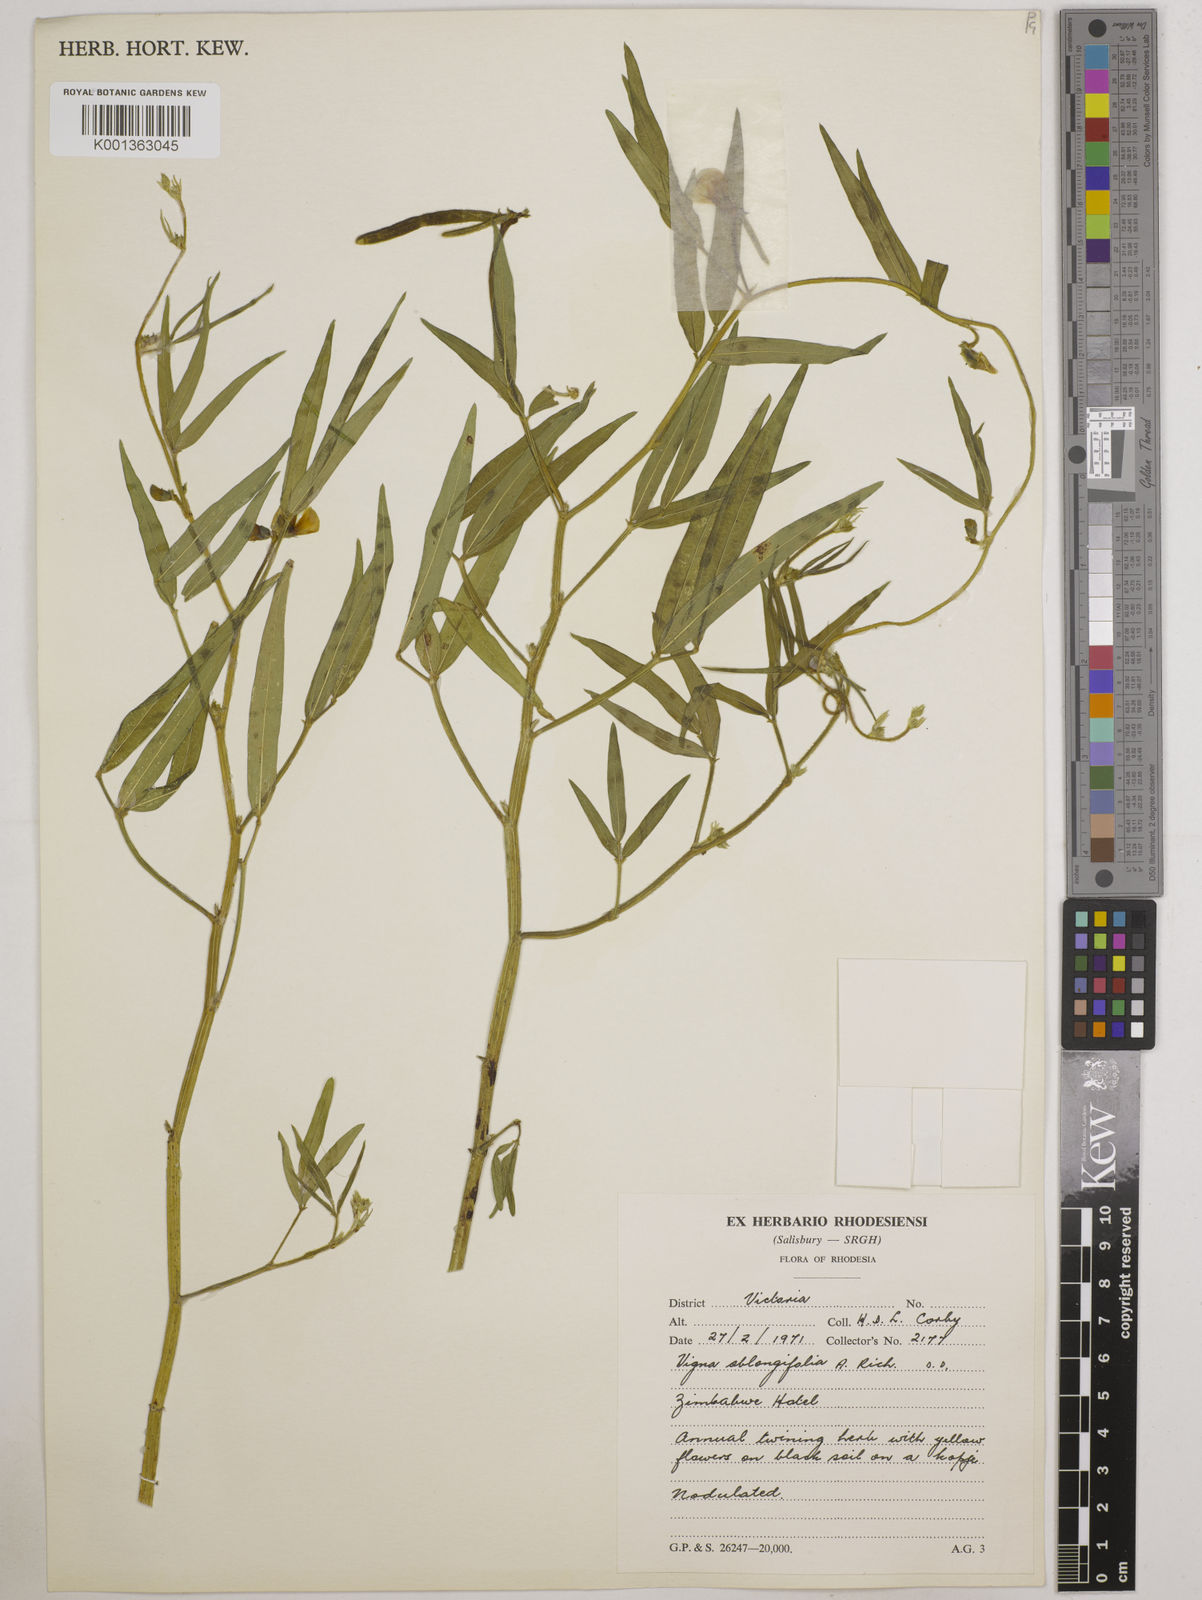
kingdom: Plantae
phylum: Tracheophyta
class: Magnoliopsida
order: Fabales
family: Fabaceae
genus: Vigna
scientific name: Vigna oblongifolia
